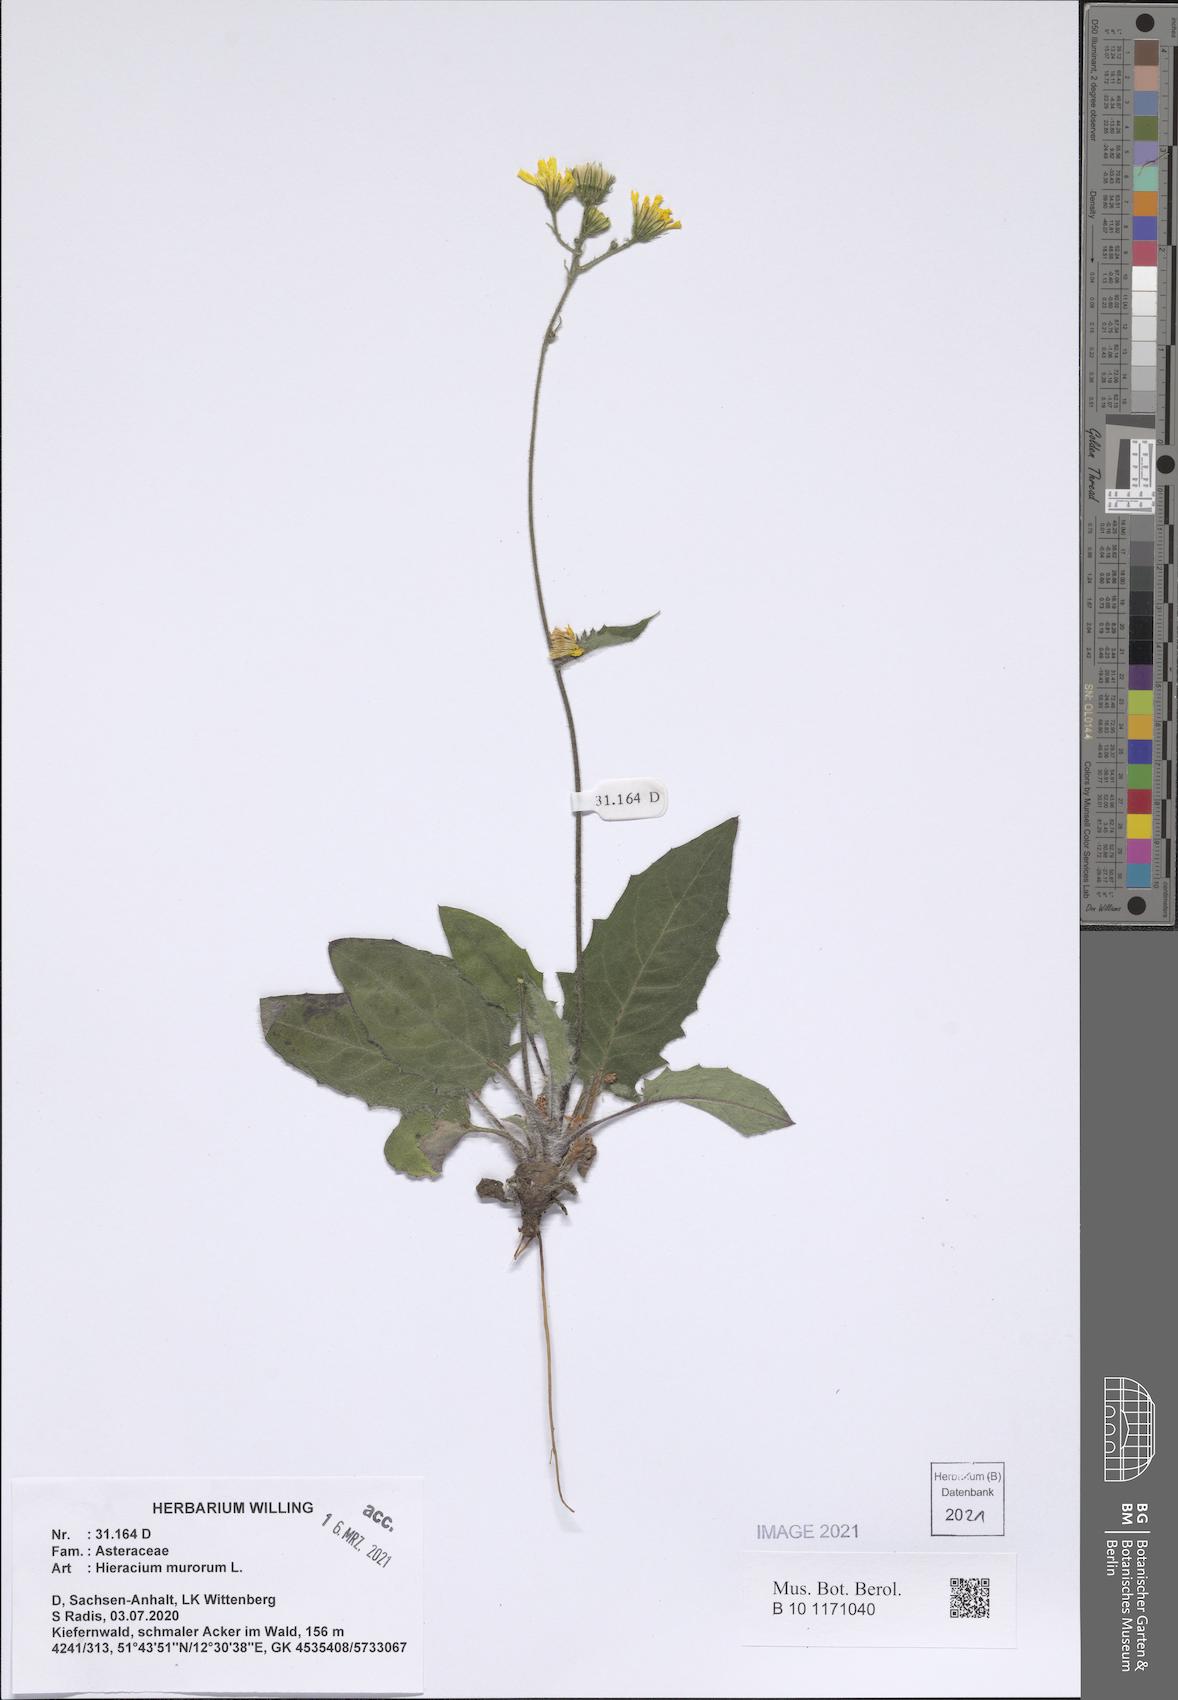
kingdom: Plantae
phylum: Tracheophyta
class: Magnoliopsida
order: Asterales
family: Asteraceae
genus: Hieracium
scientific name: Hieracium murorum
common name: Wall hawkweed
